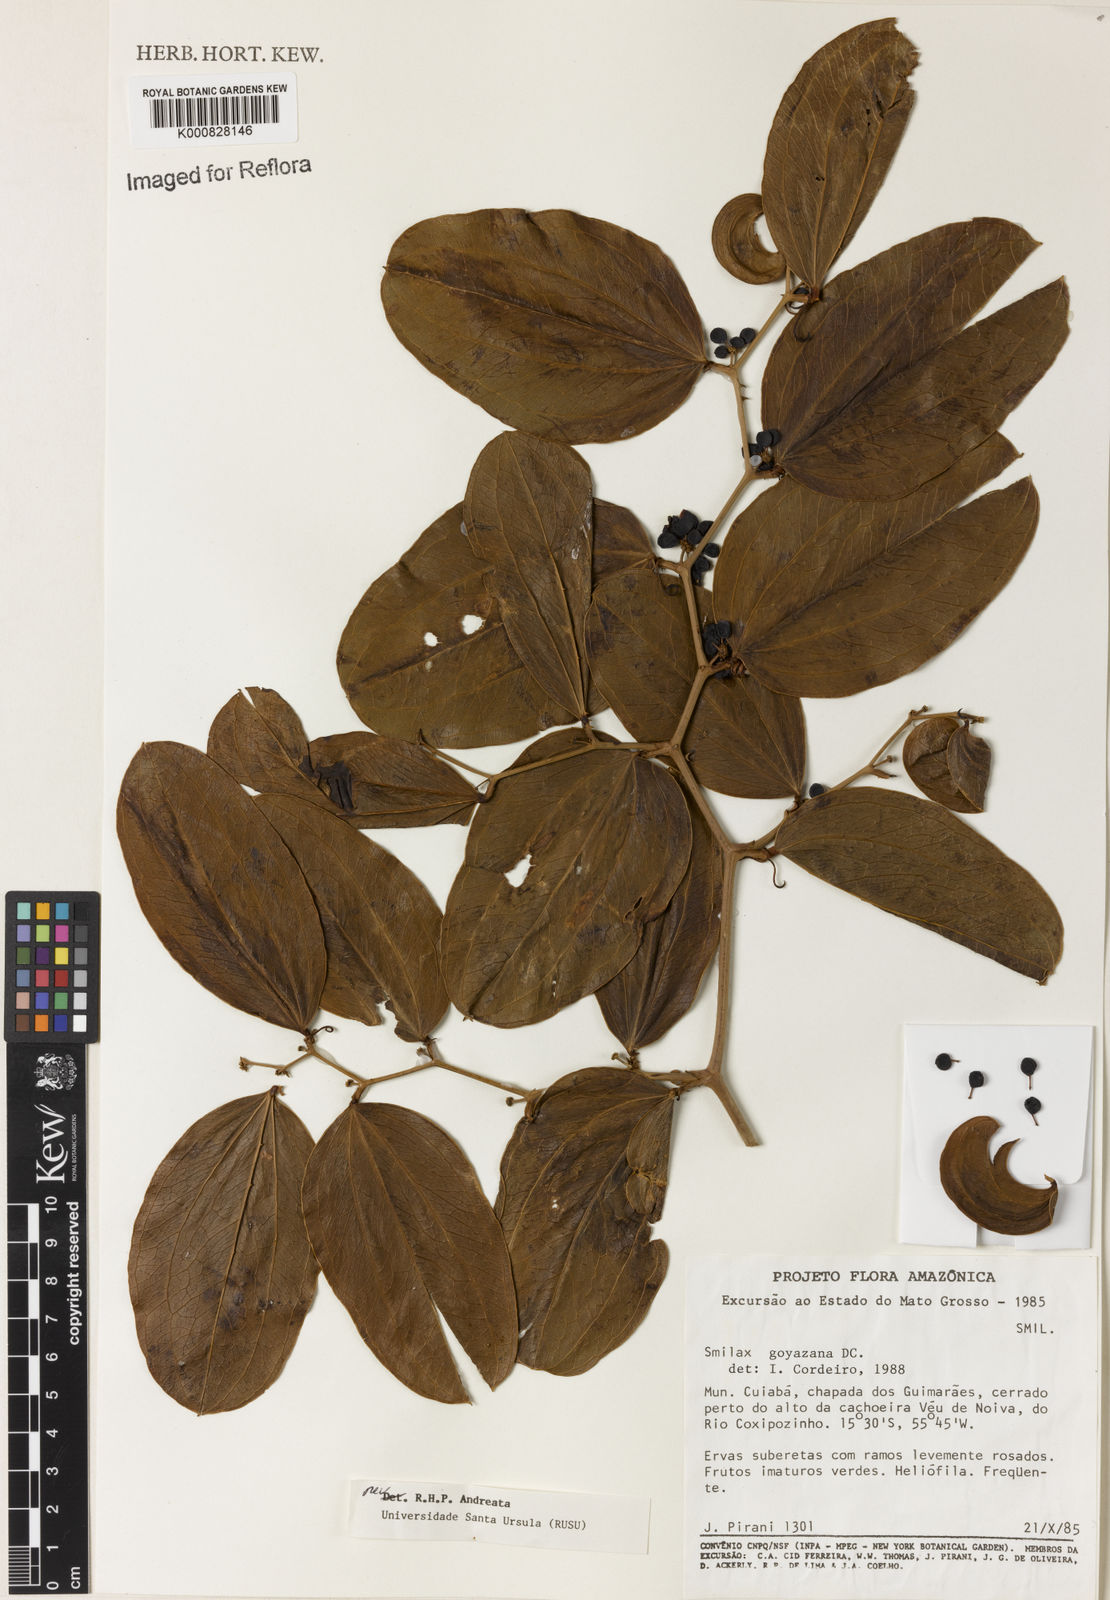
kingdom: Plantae
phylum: Tracheophyta
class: Liliopsida
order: Liliales
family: Smilacaceae
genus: Smilax
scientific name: Smilax goyazana
